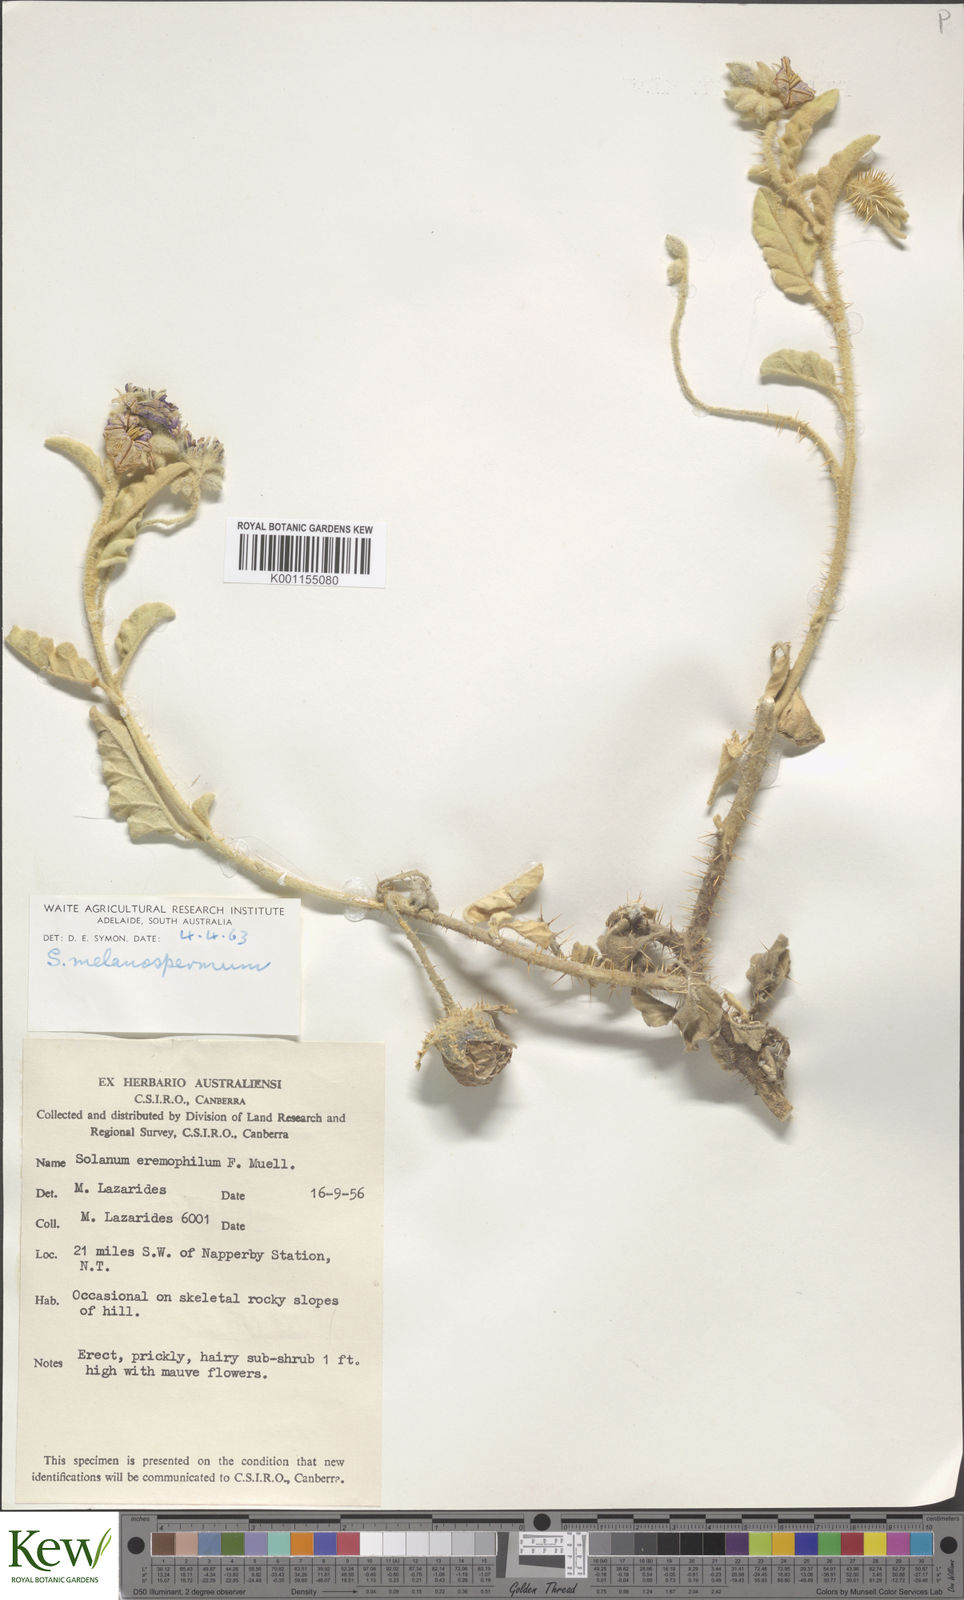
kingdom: Plantae
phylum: Tracheophyta
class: Magnoliopsida
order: Solanales
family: Solanaceae
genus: Solanum
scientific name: Solanum chippendalei
